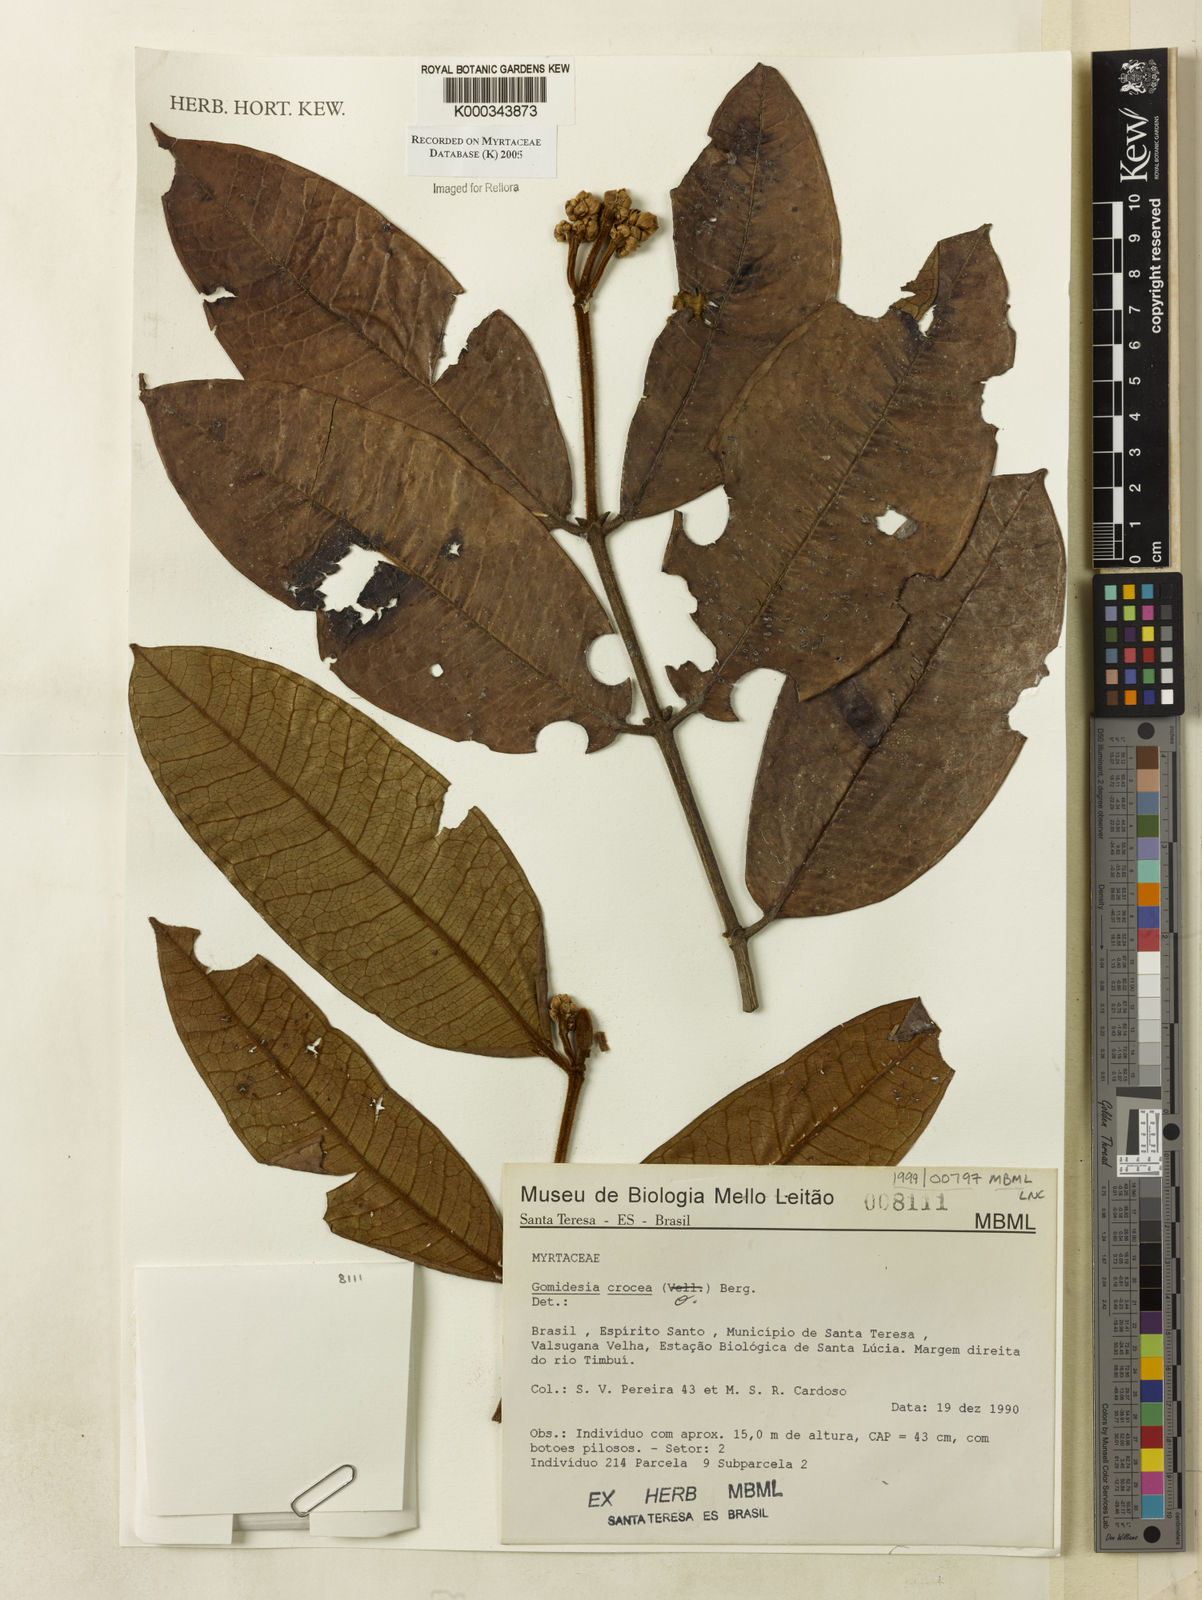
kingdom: Plantae
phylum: Tracheophyta
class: Magnoliopsida
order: Myrtales
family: Myrtaceae
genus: Myrcia
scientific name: Myrcia amplexicaulis
